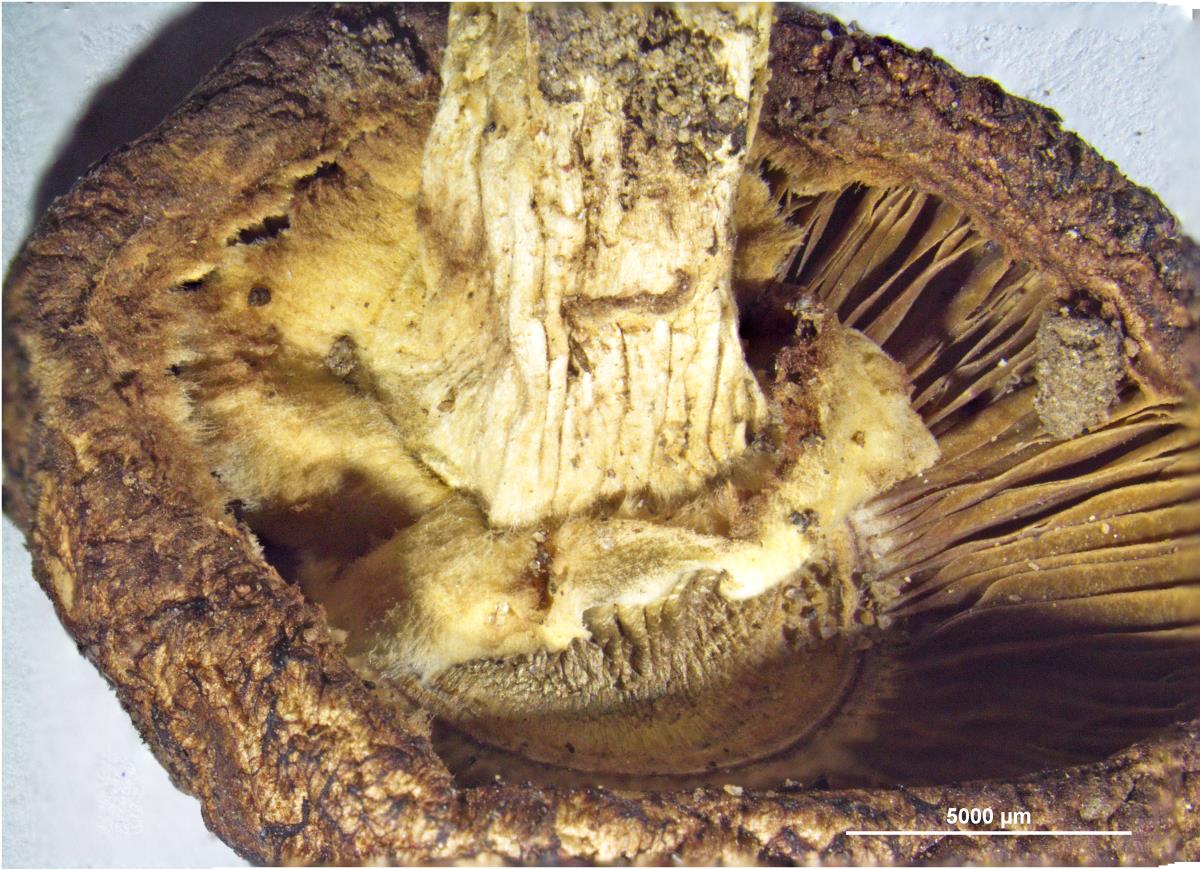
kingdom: Fungi
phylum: Basidiomycota
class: Agaricomycetes
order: Agaricales
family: Agaricaceae
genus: Agaricus
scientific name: Agaricus
